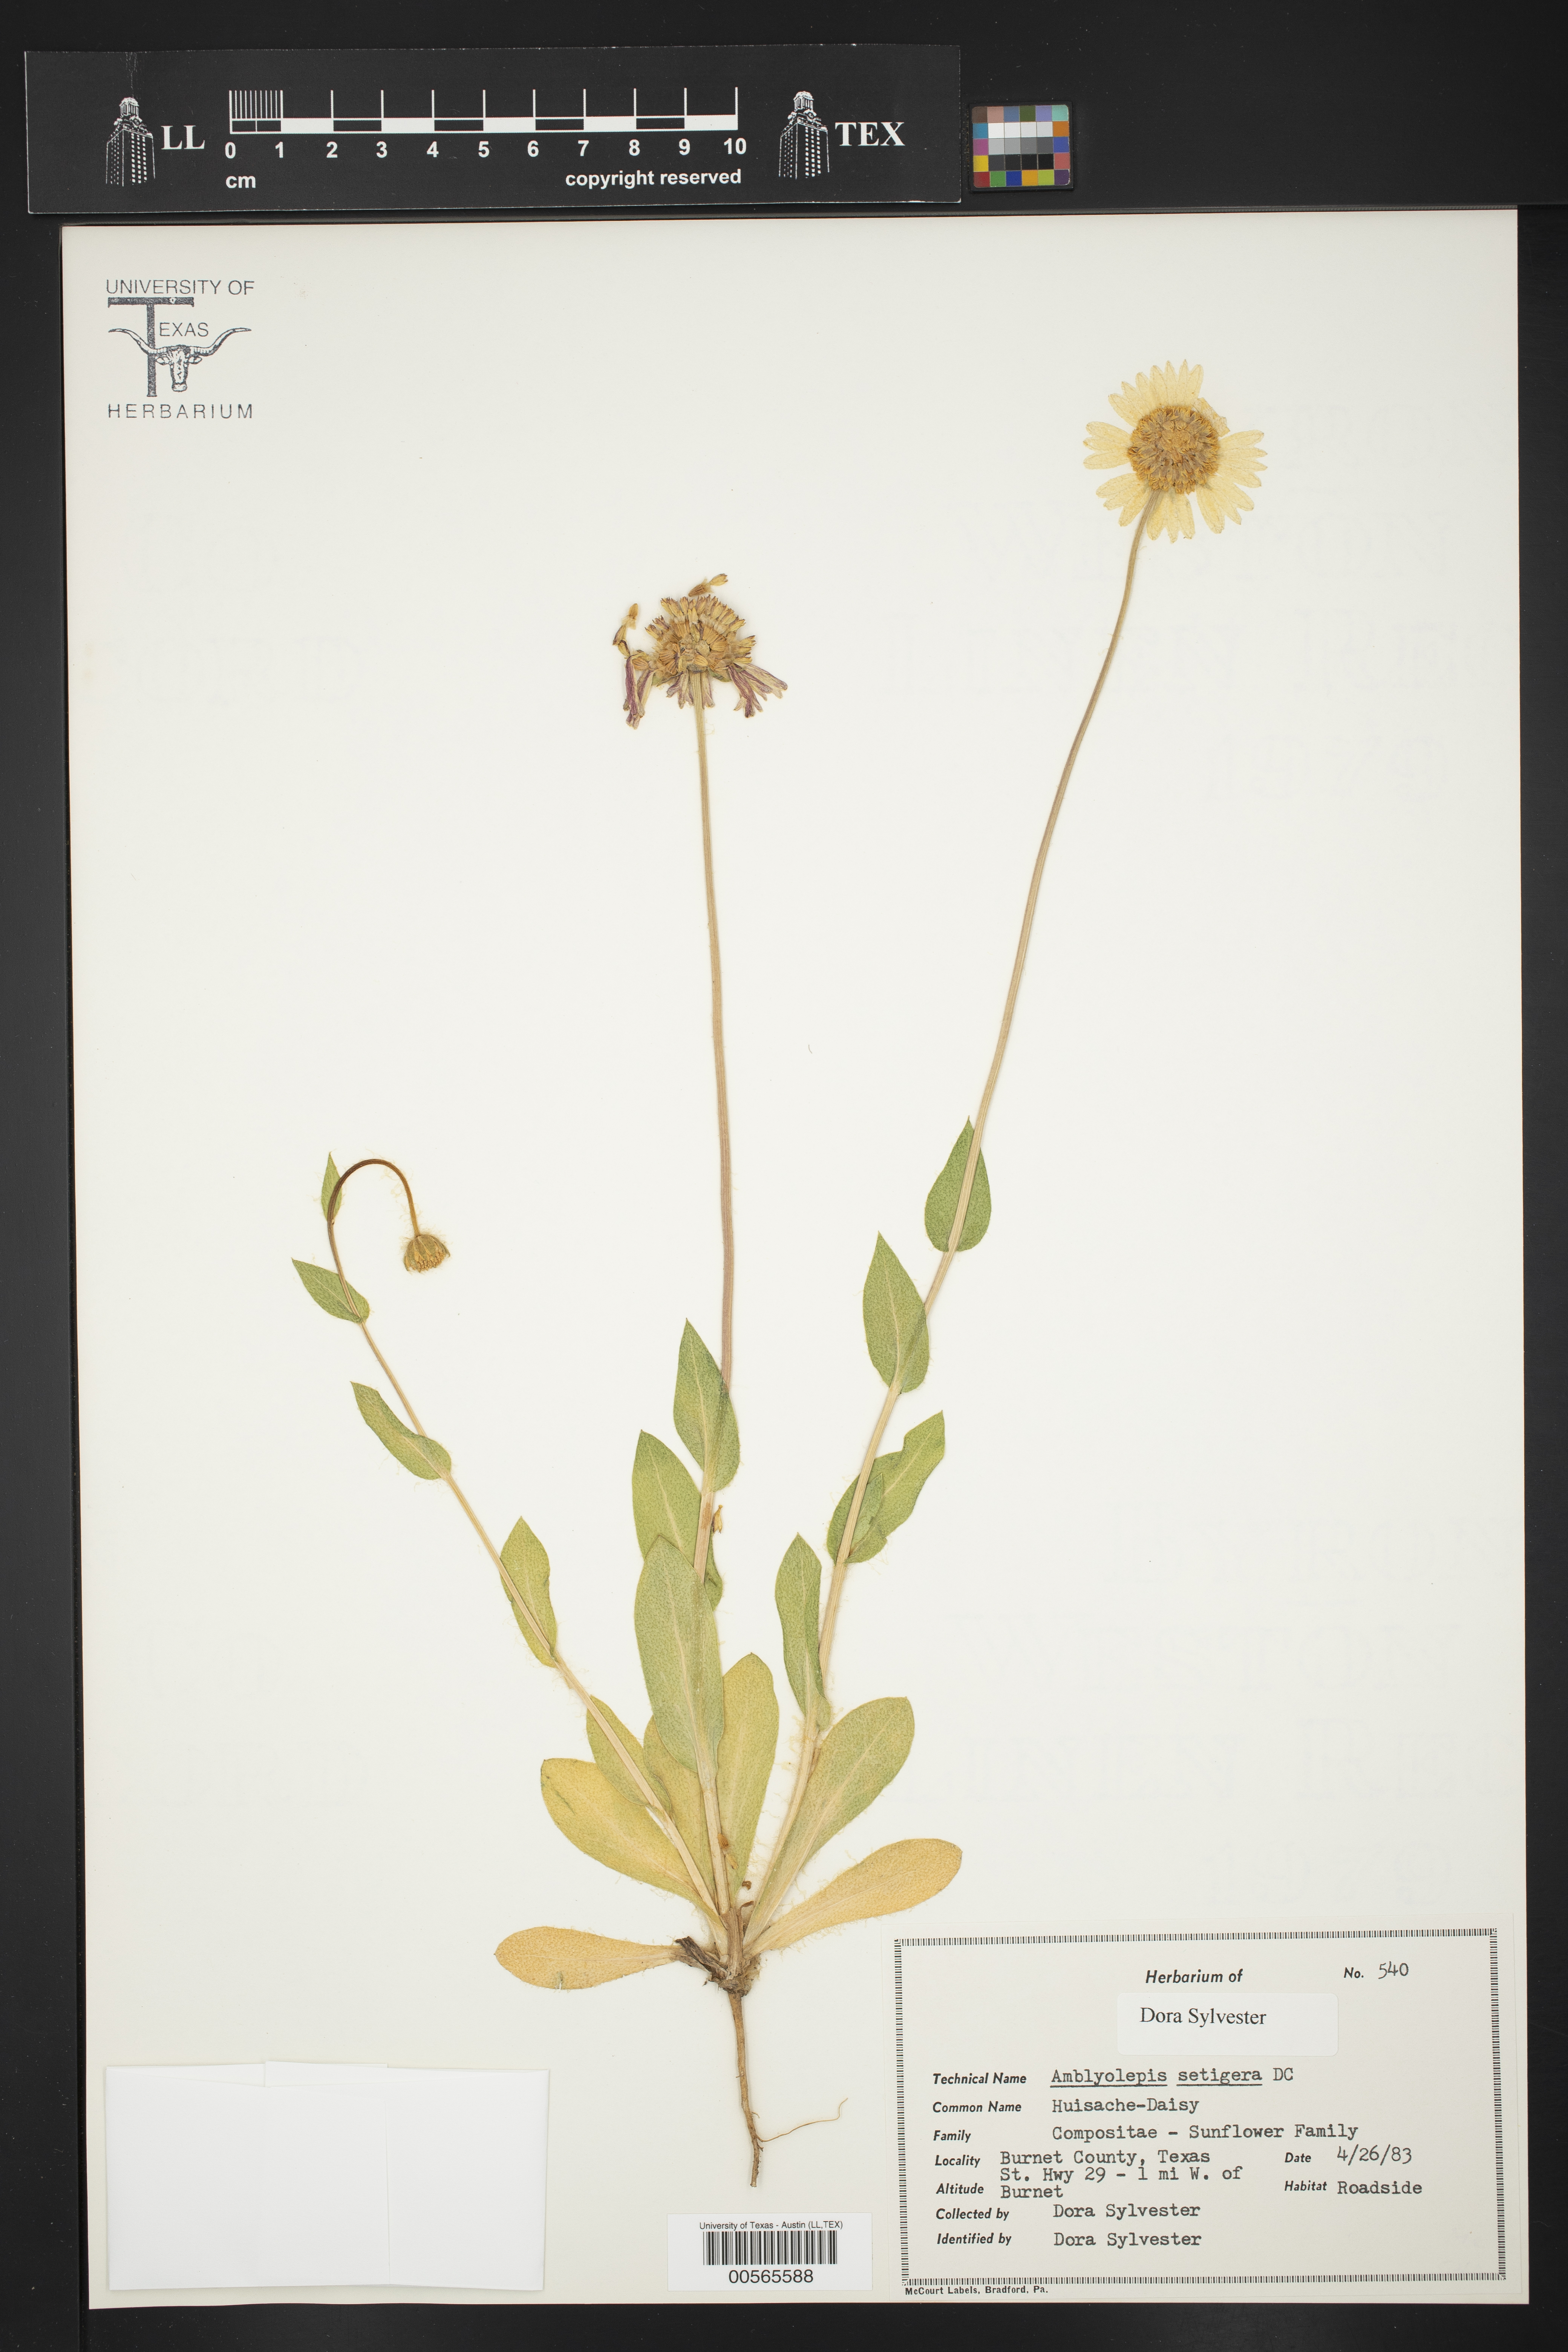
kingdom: Plantae
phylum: Tracheophyta
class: Magnoliopsida
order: Asterales
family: Asteraceae
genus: Amblyolepis
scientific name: Amblyolepis setigera
